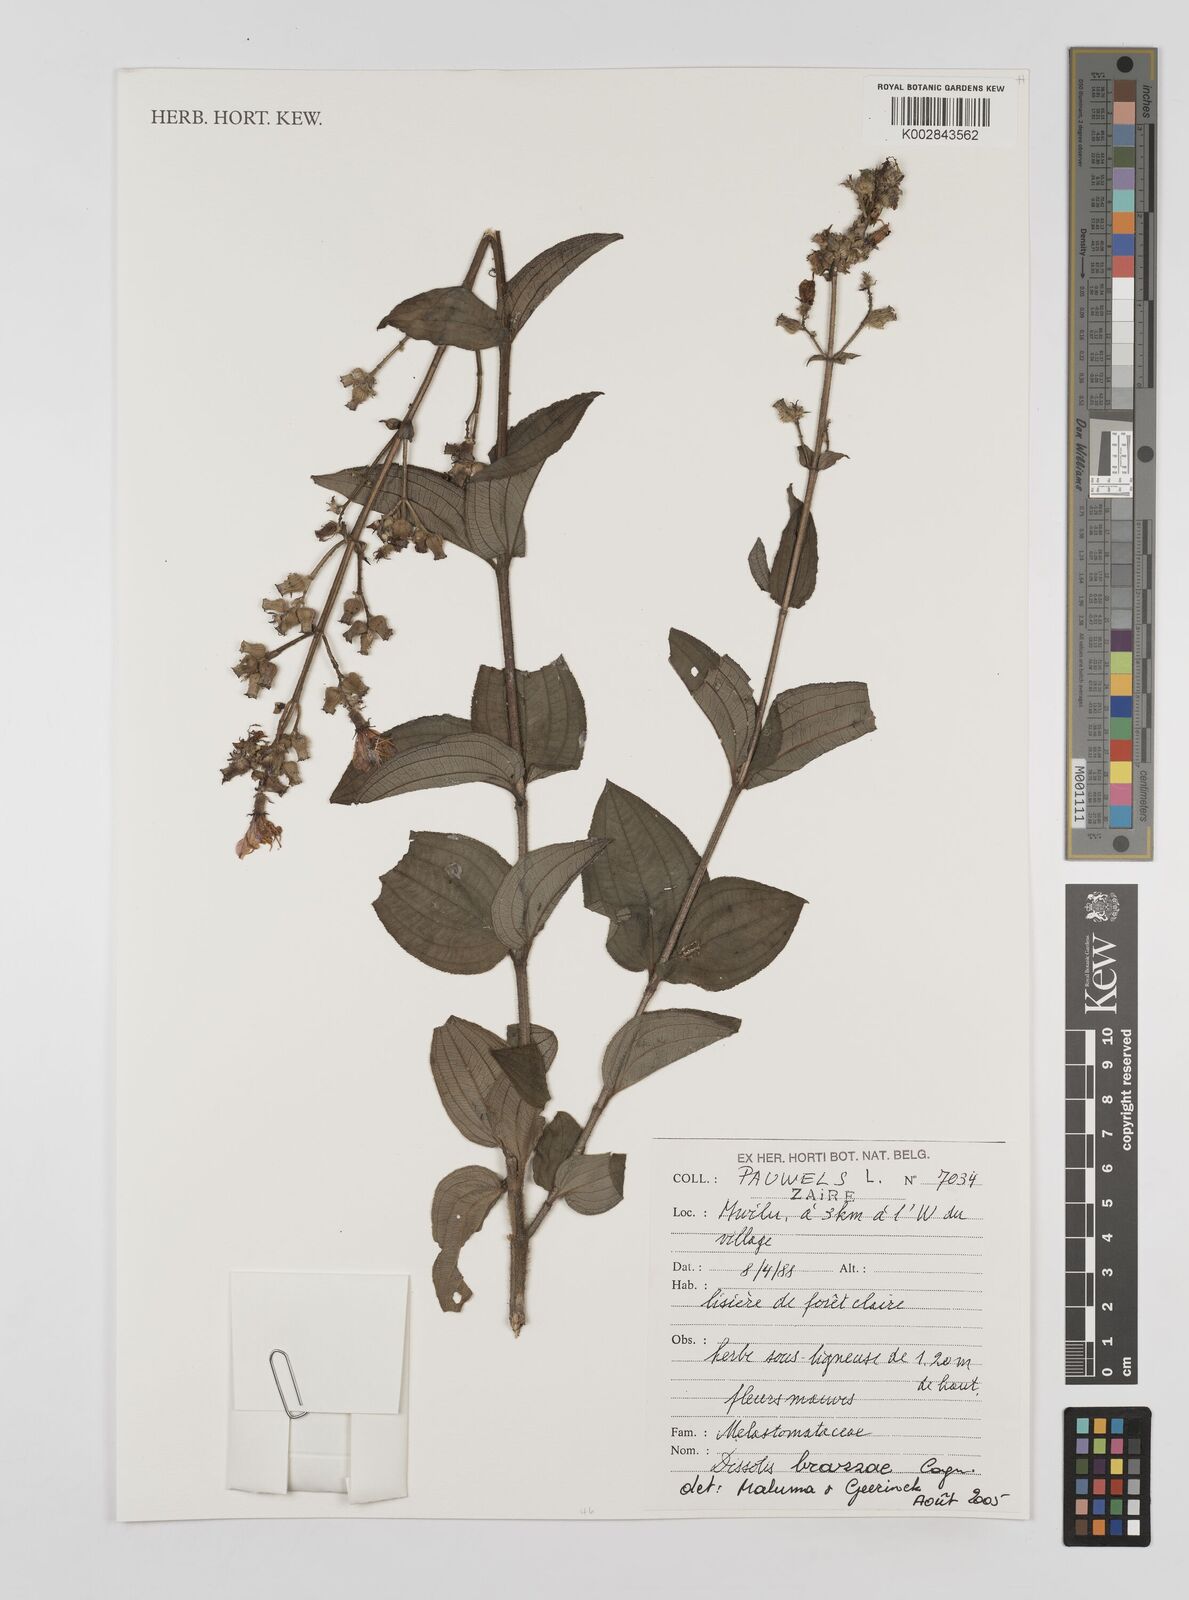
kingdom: Plantae
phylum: Tracheophyta
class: Magnoliopsida
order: Myrtales
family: Melastomataceae
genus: Dupineta
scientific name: Dupineta brazzae
